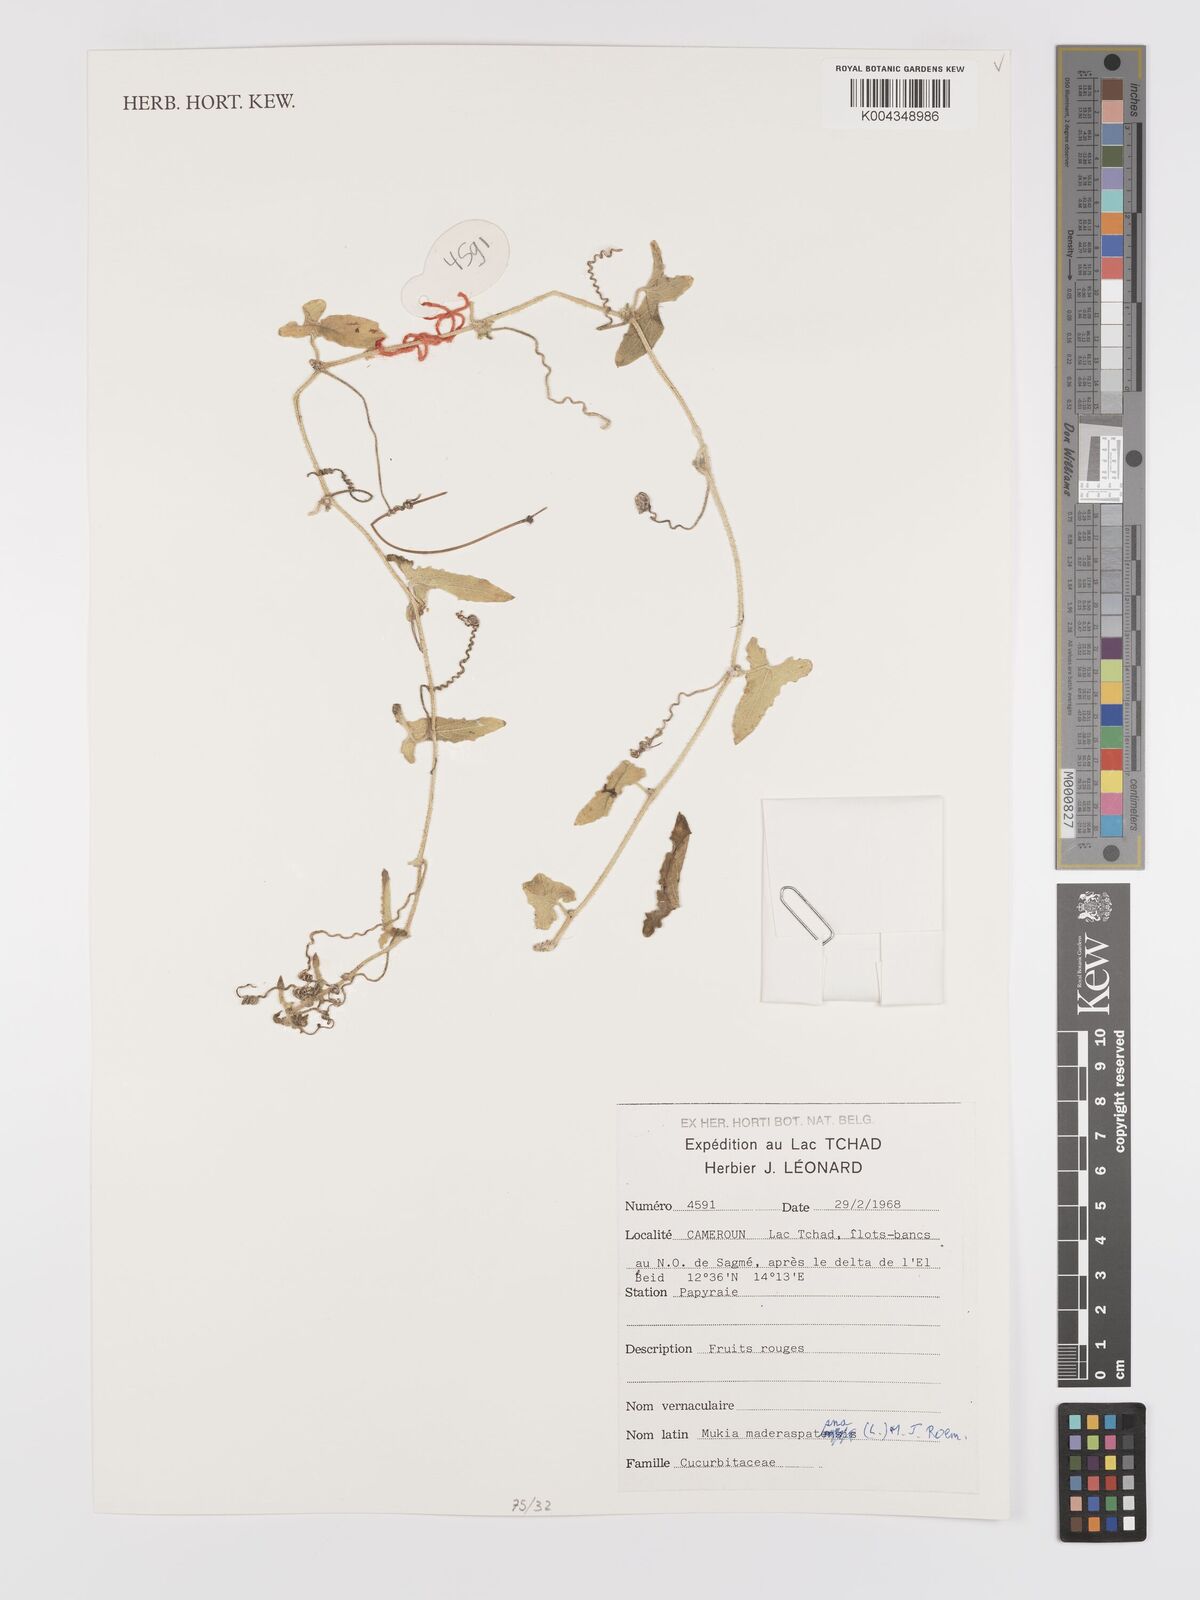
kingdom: Plantae
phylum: Tracheophyta
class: Magnoliopsida
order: Cucurbitales
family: Cucurbitaceae
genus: Cucumis
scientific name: Cucumis maderaspatanus
